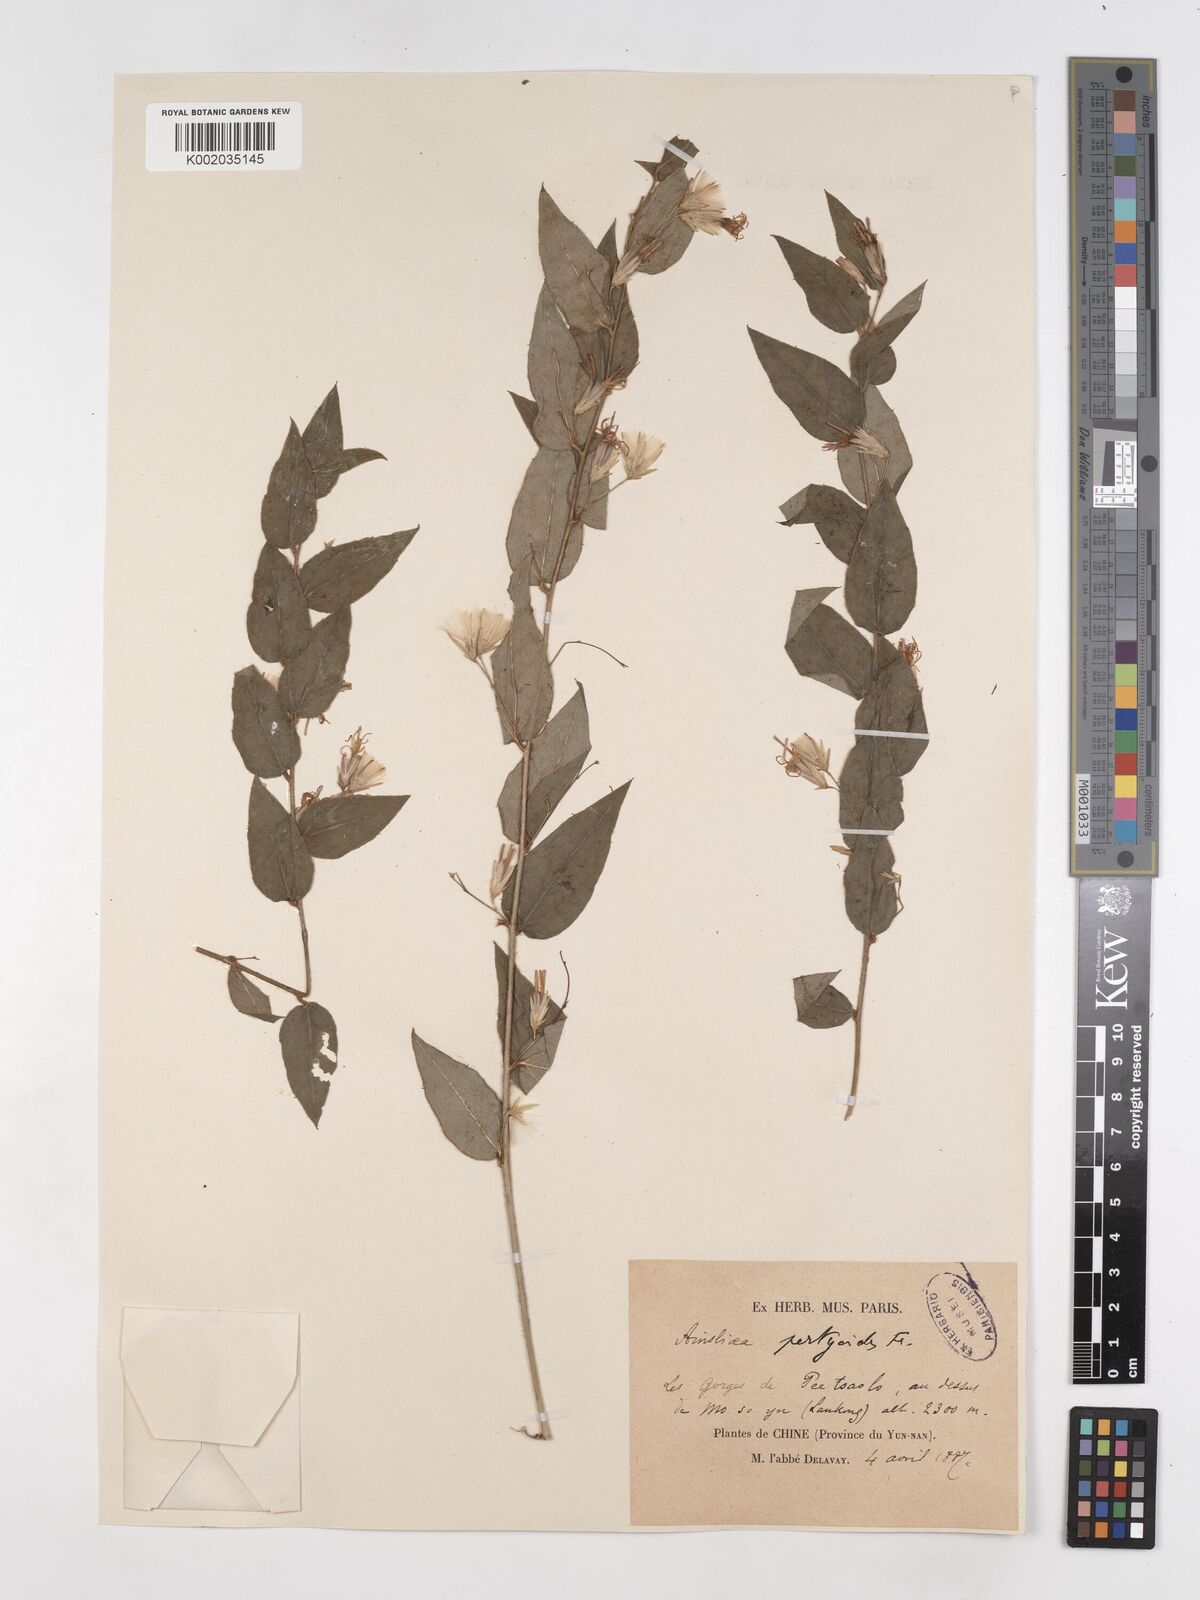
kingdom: Plantae
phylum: Tracheophyta
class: Magnoliopsida
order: Asterales
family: Asteraceae
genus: Ainsliaea
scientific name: Ainsliaea pertyoides
